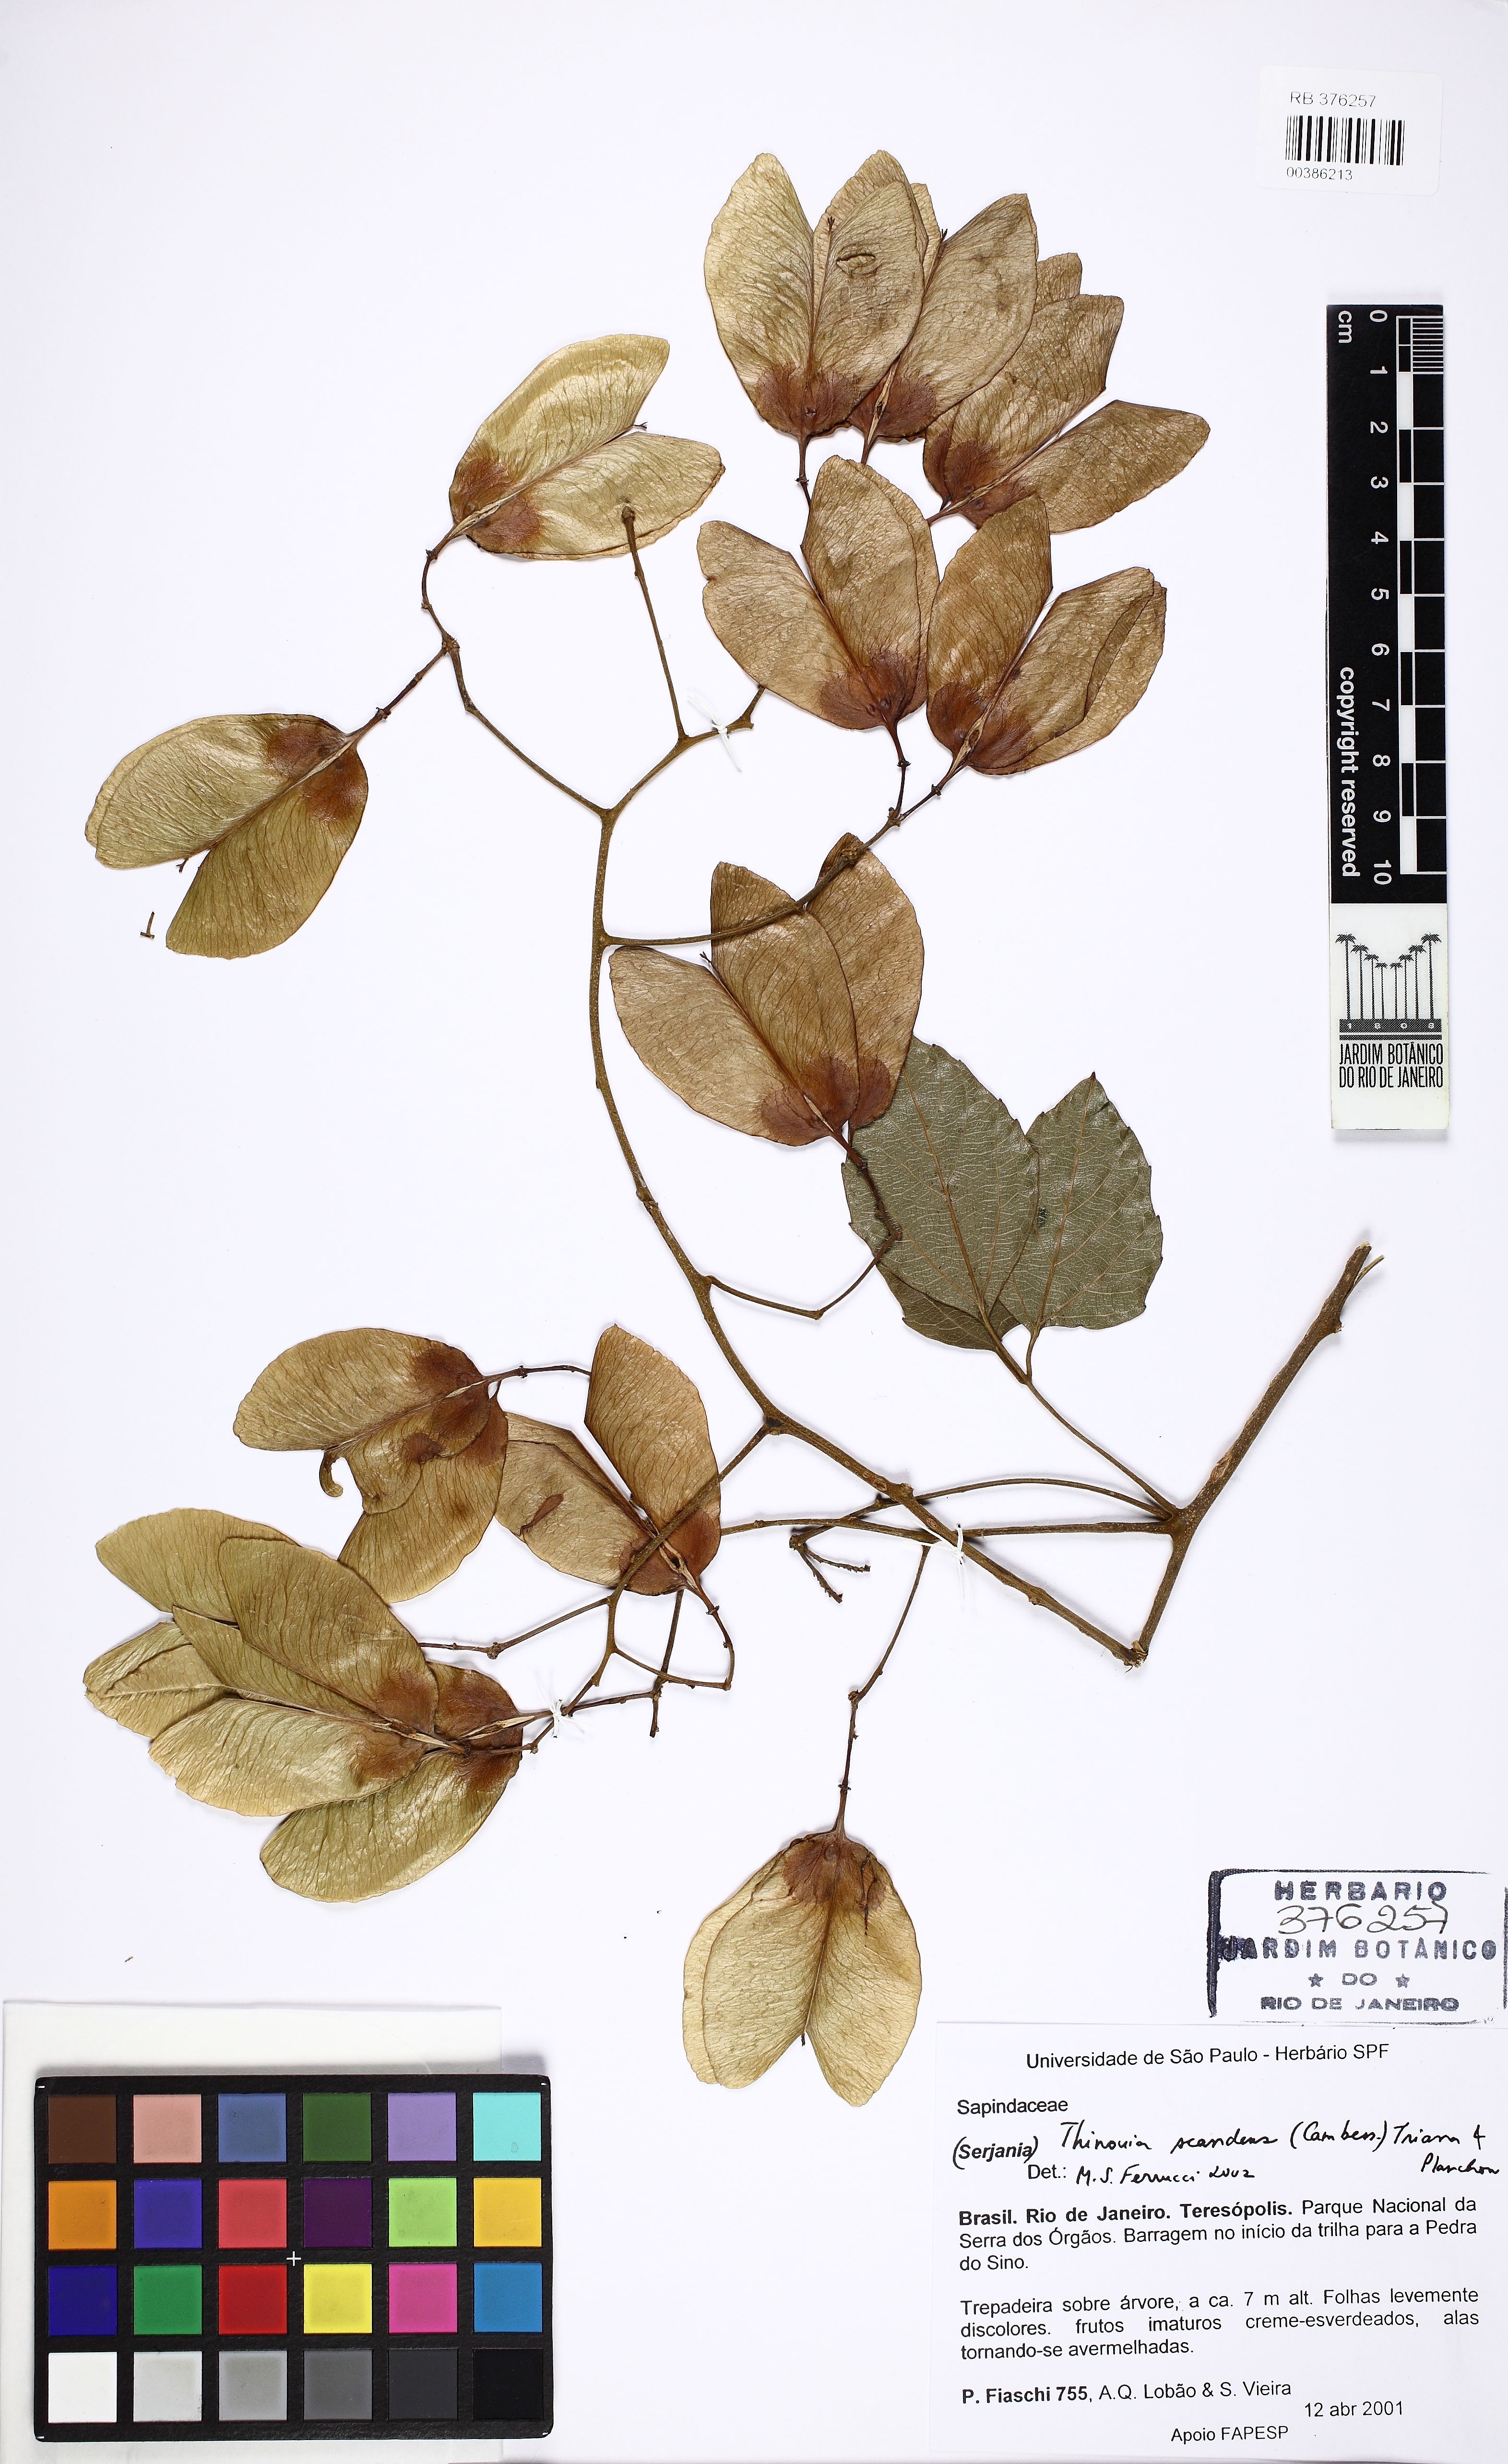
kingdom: Plantae
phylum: Tracheophyta
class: Magnoliopsida
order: Sapindales
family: Sapindaceae
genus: Thinouia
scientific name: Thinouia scandens
